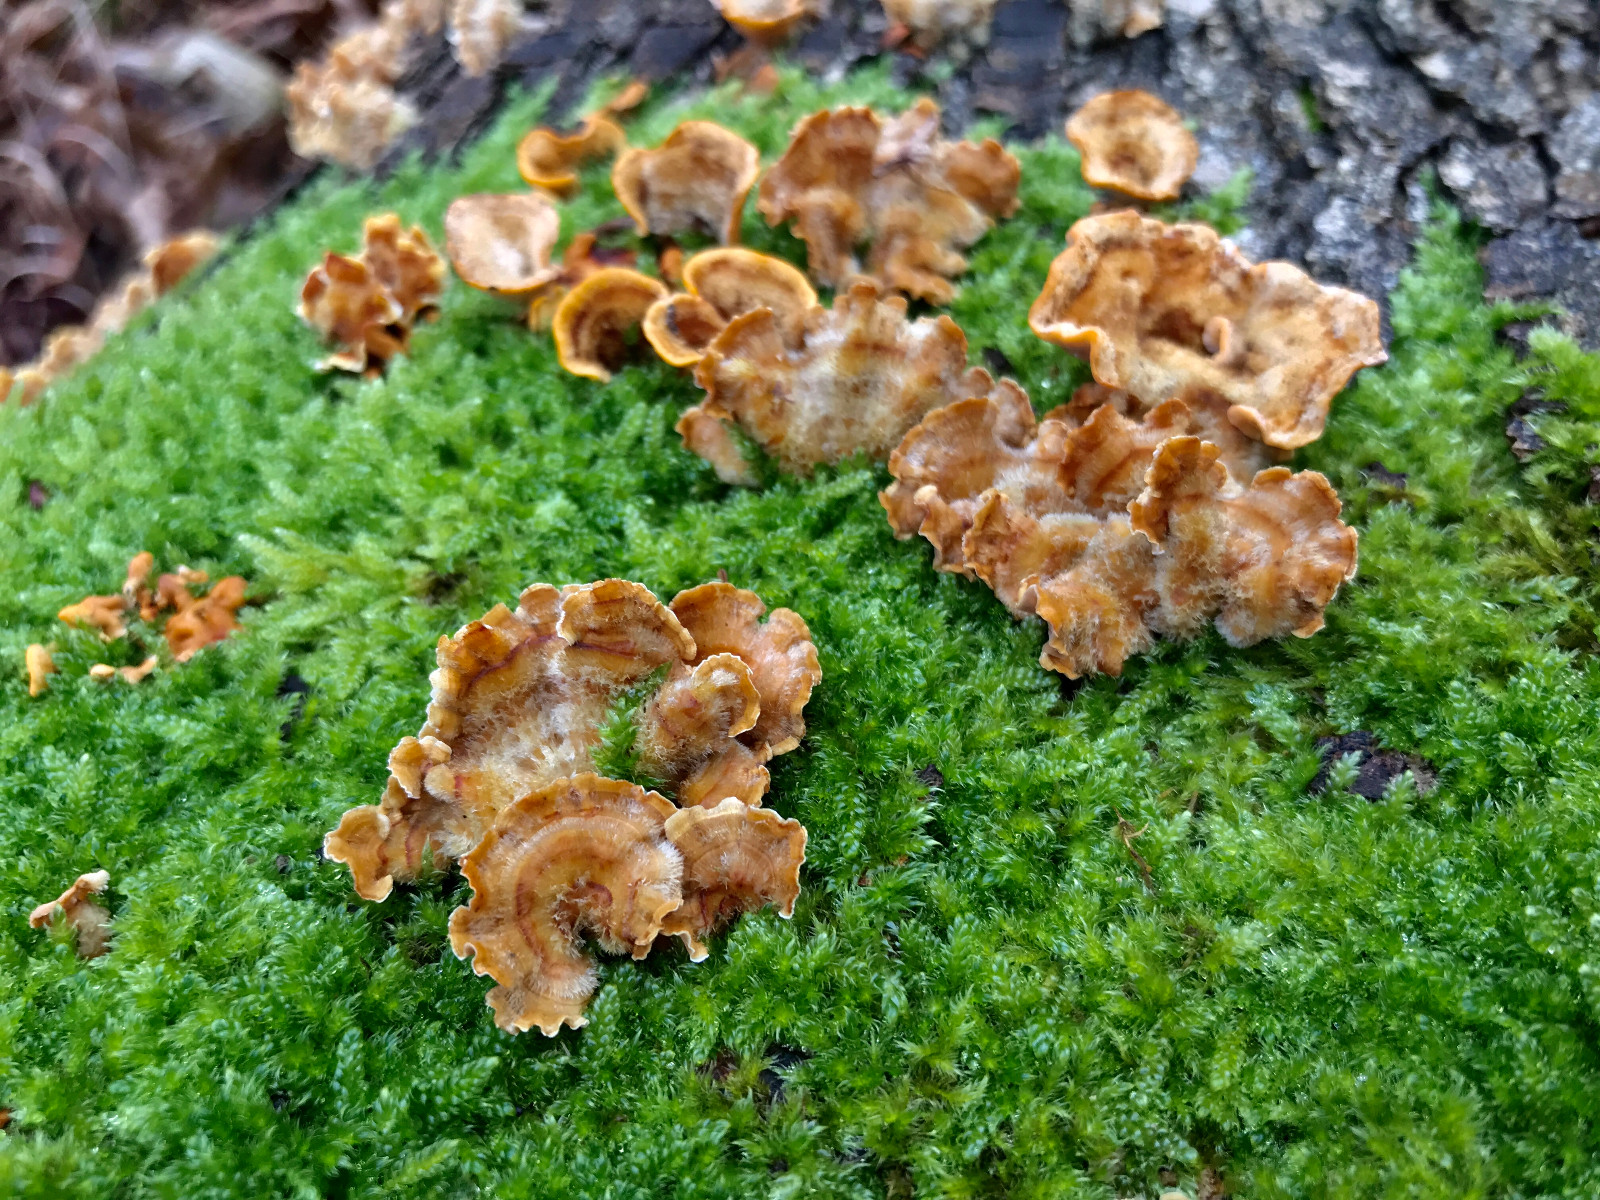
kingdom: Fungi
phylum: Basidiomycota
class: Agaricomycetes
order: Russulales
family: Stereaceae
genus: Stereum
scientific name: Stereum hirsutum
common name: håret lædersvamp
